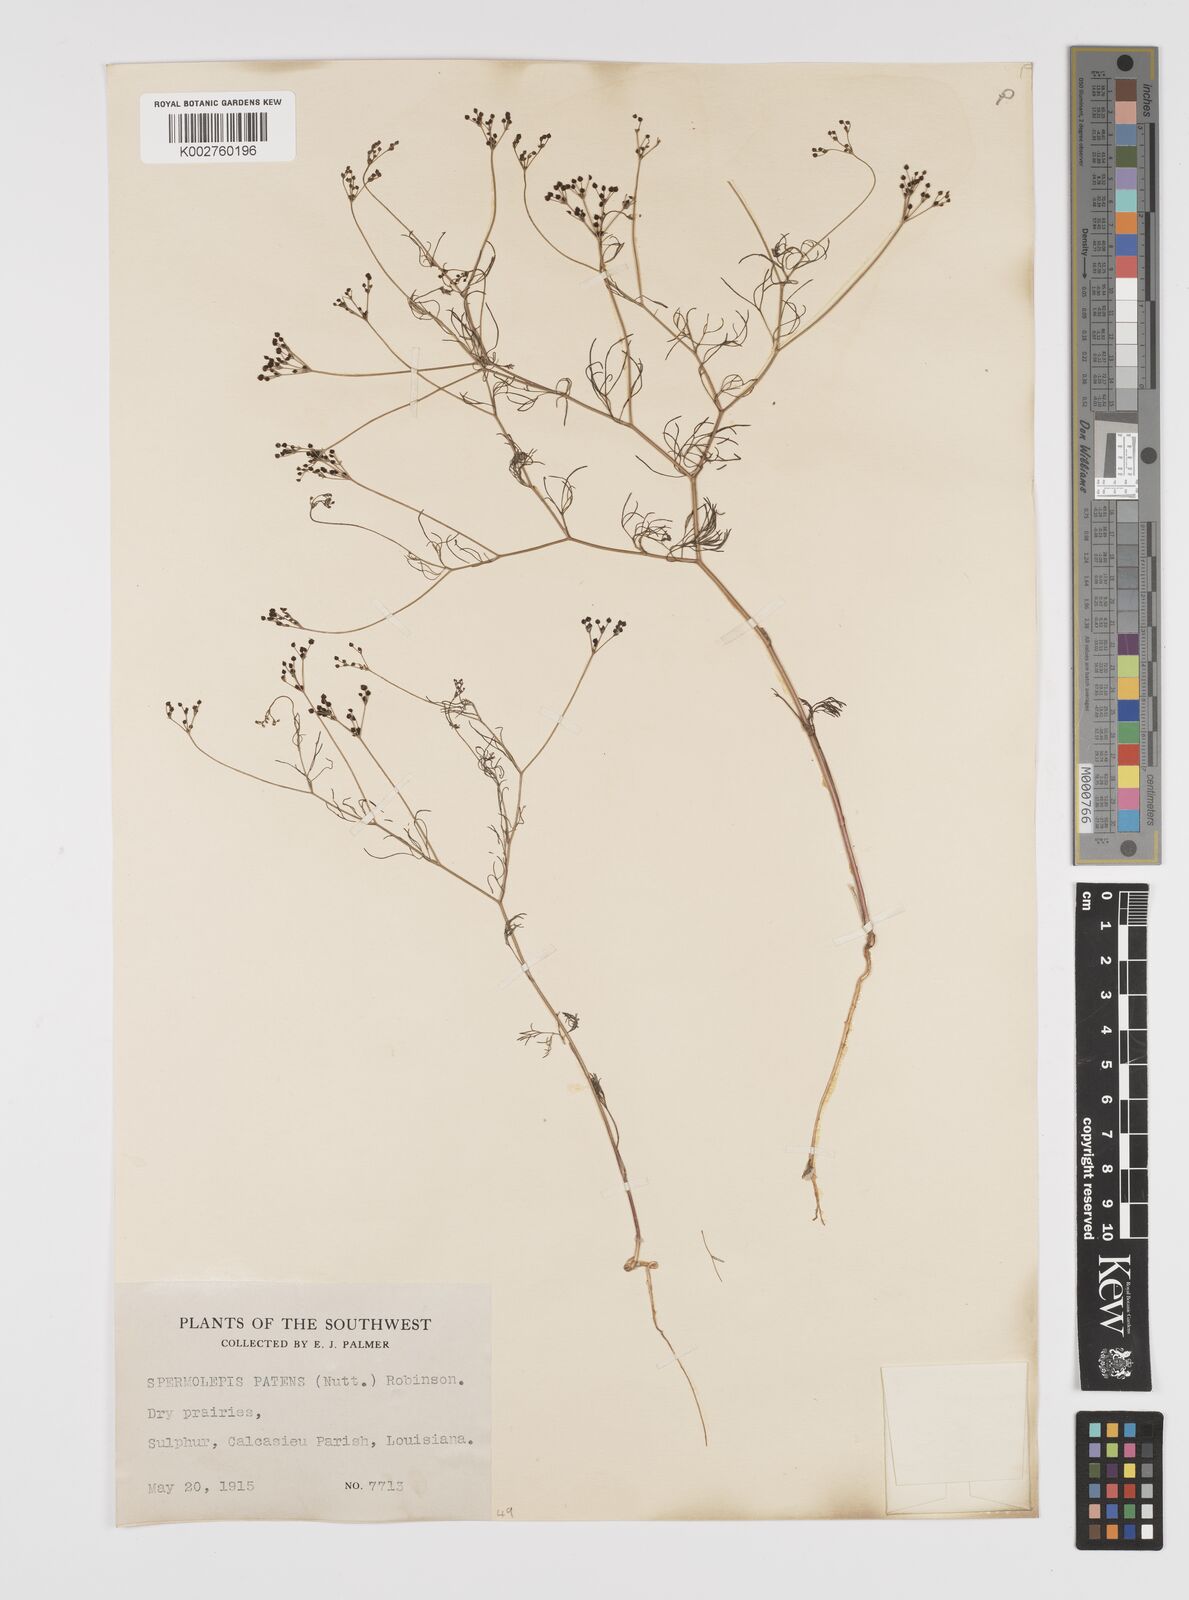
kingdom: Plantae
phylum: Tracheophyta
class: Magnoliopsida
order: Apiales
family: Apiaceae
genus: Spermolepis
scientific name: Spermolepis inermis
